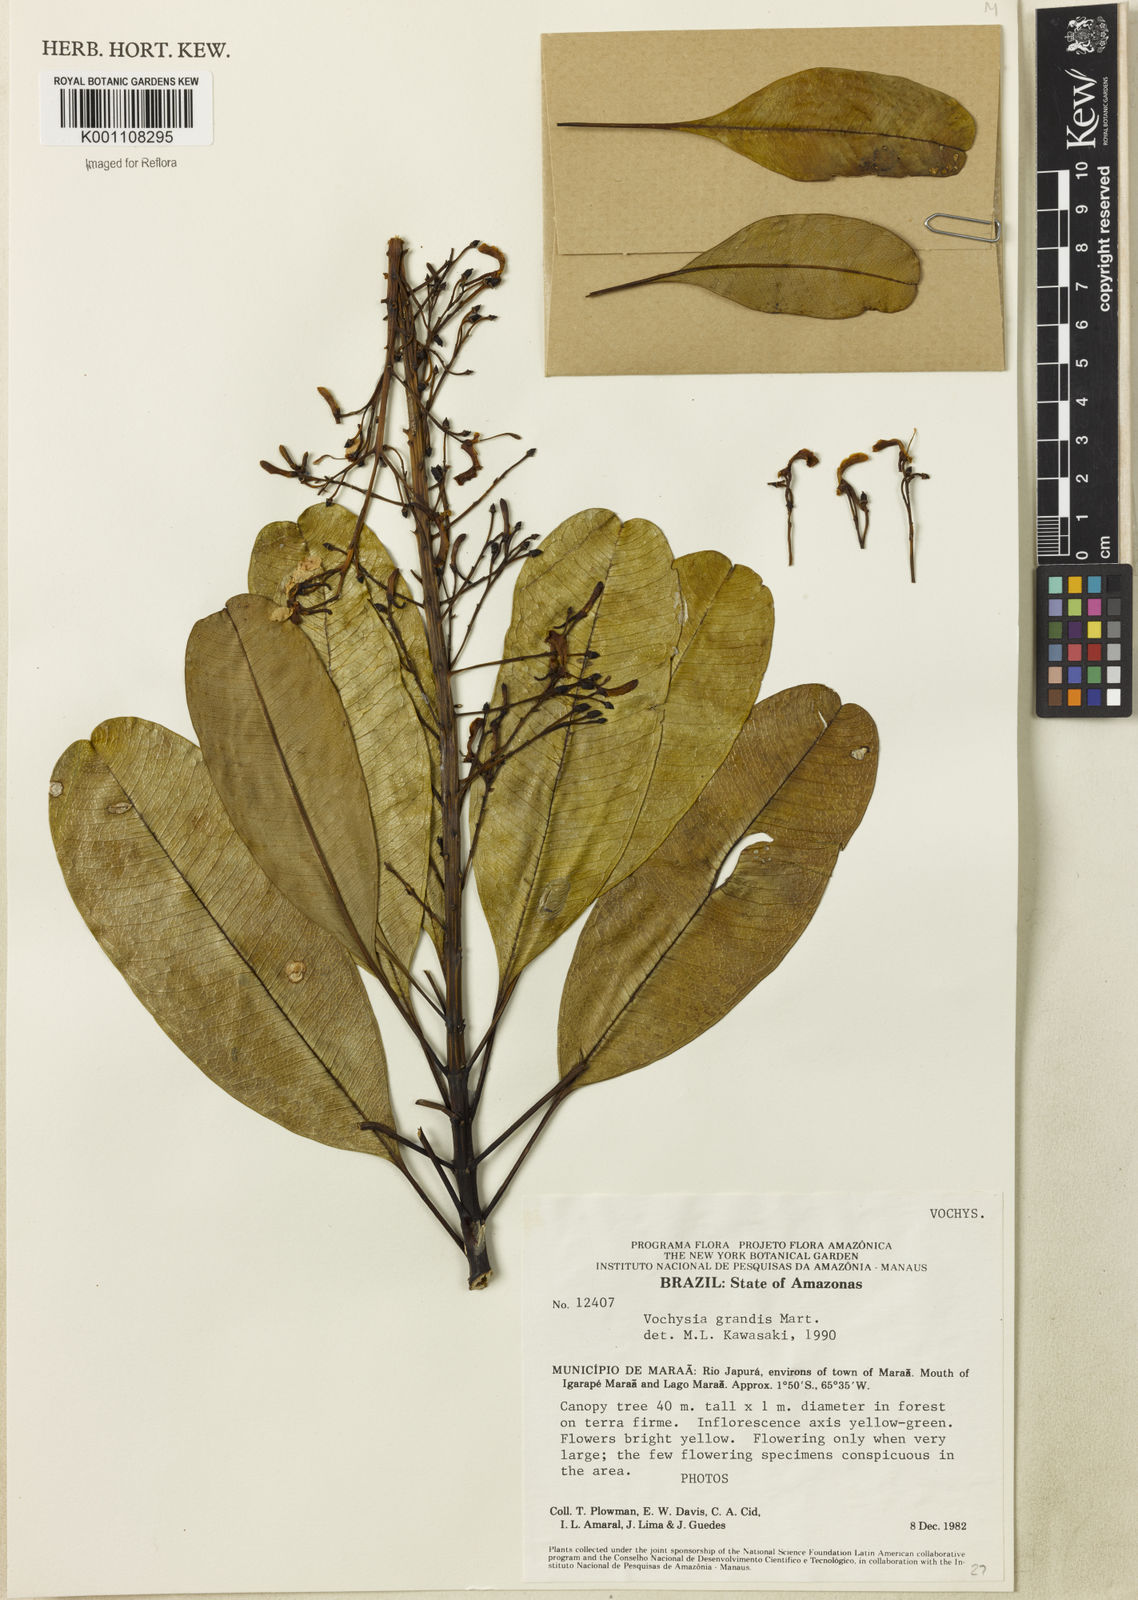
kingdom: Plantae
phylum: Tracheophyta
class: Magnoliopsida
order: Myrtales
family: Vochysiaceae
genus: Vochysia
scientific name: Vochysia grandis
